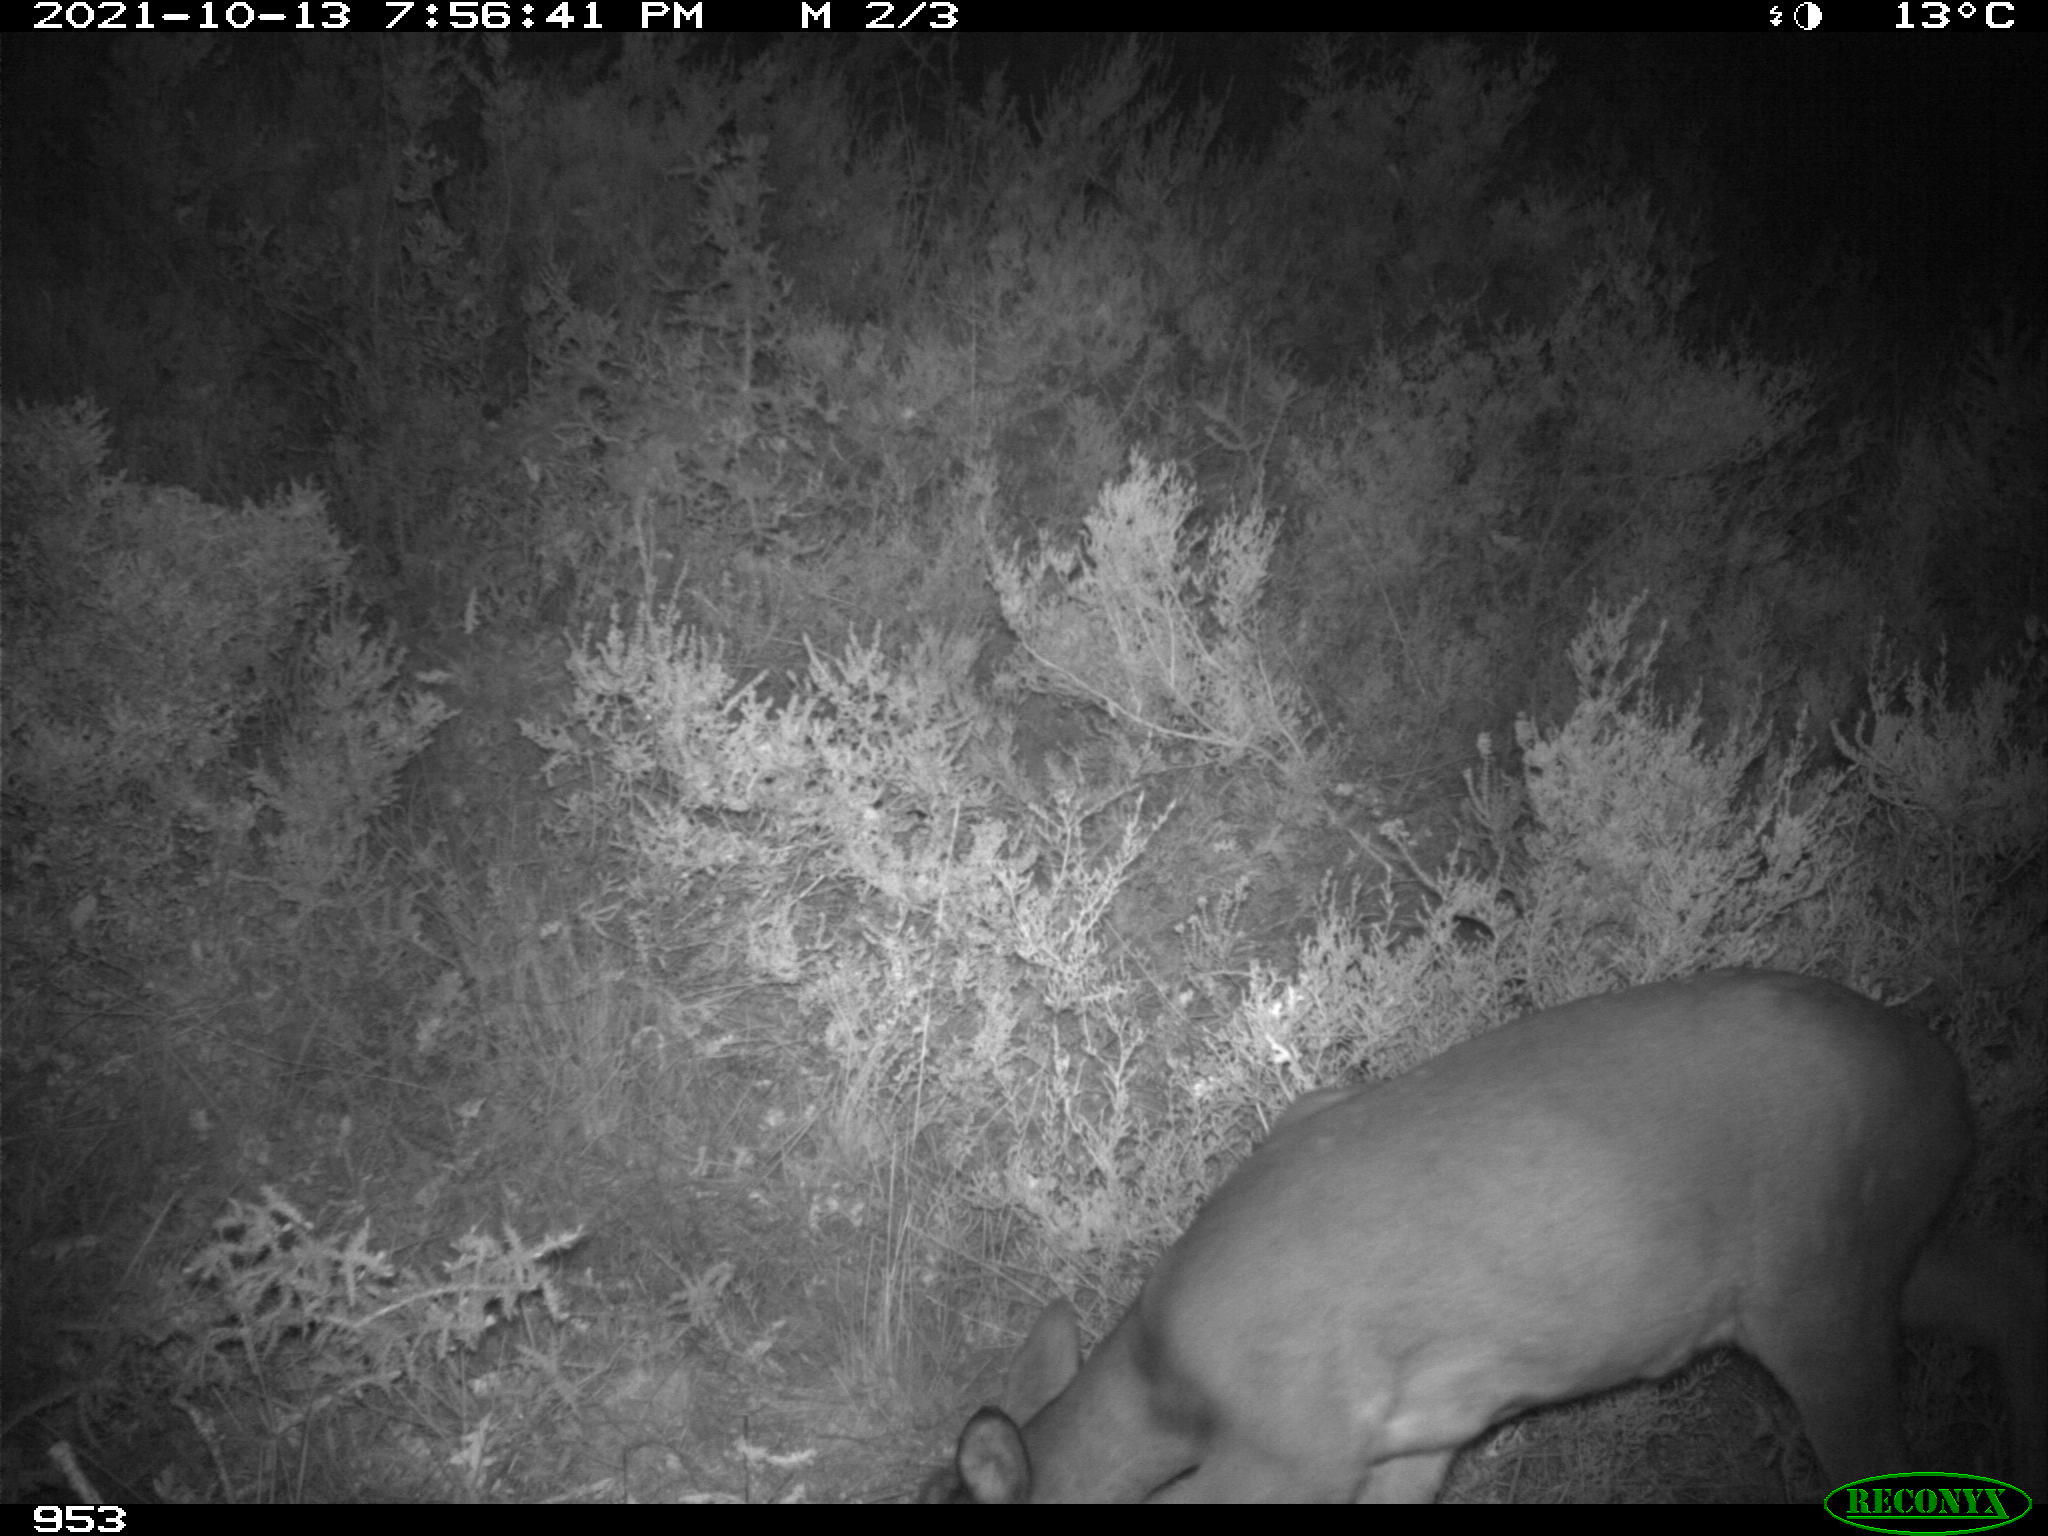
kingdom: Animalia
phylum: Chordata
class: Mammalia
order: Artiodactyla
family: Cervidae
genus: Capreolus
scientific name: Capreolus capreolus
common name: Western roe deer
